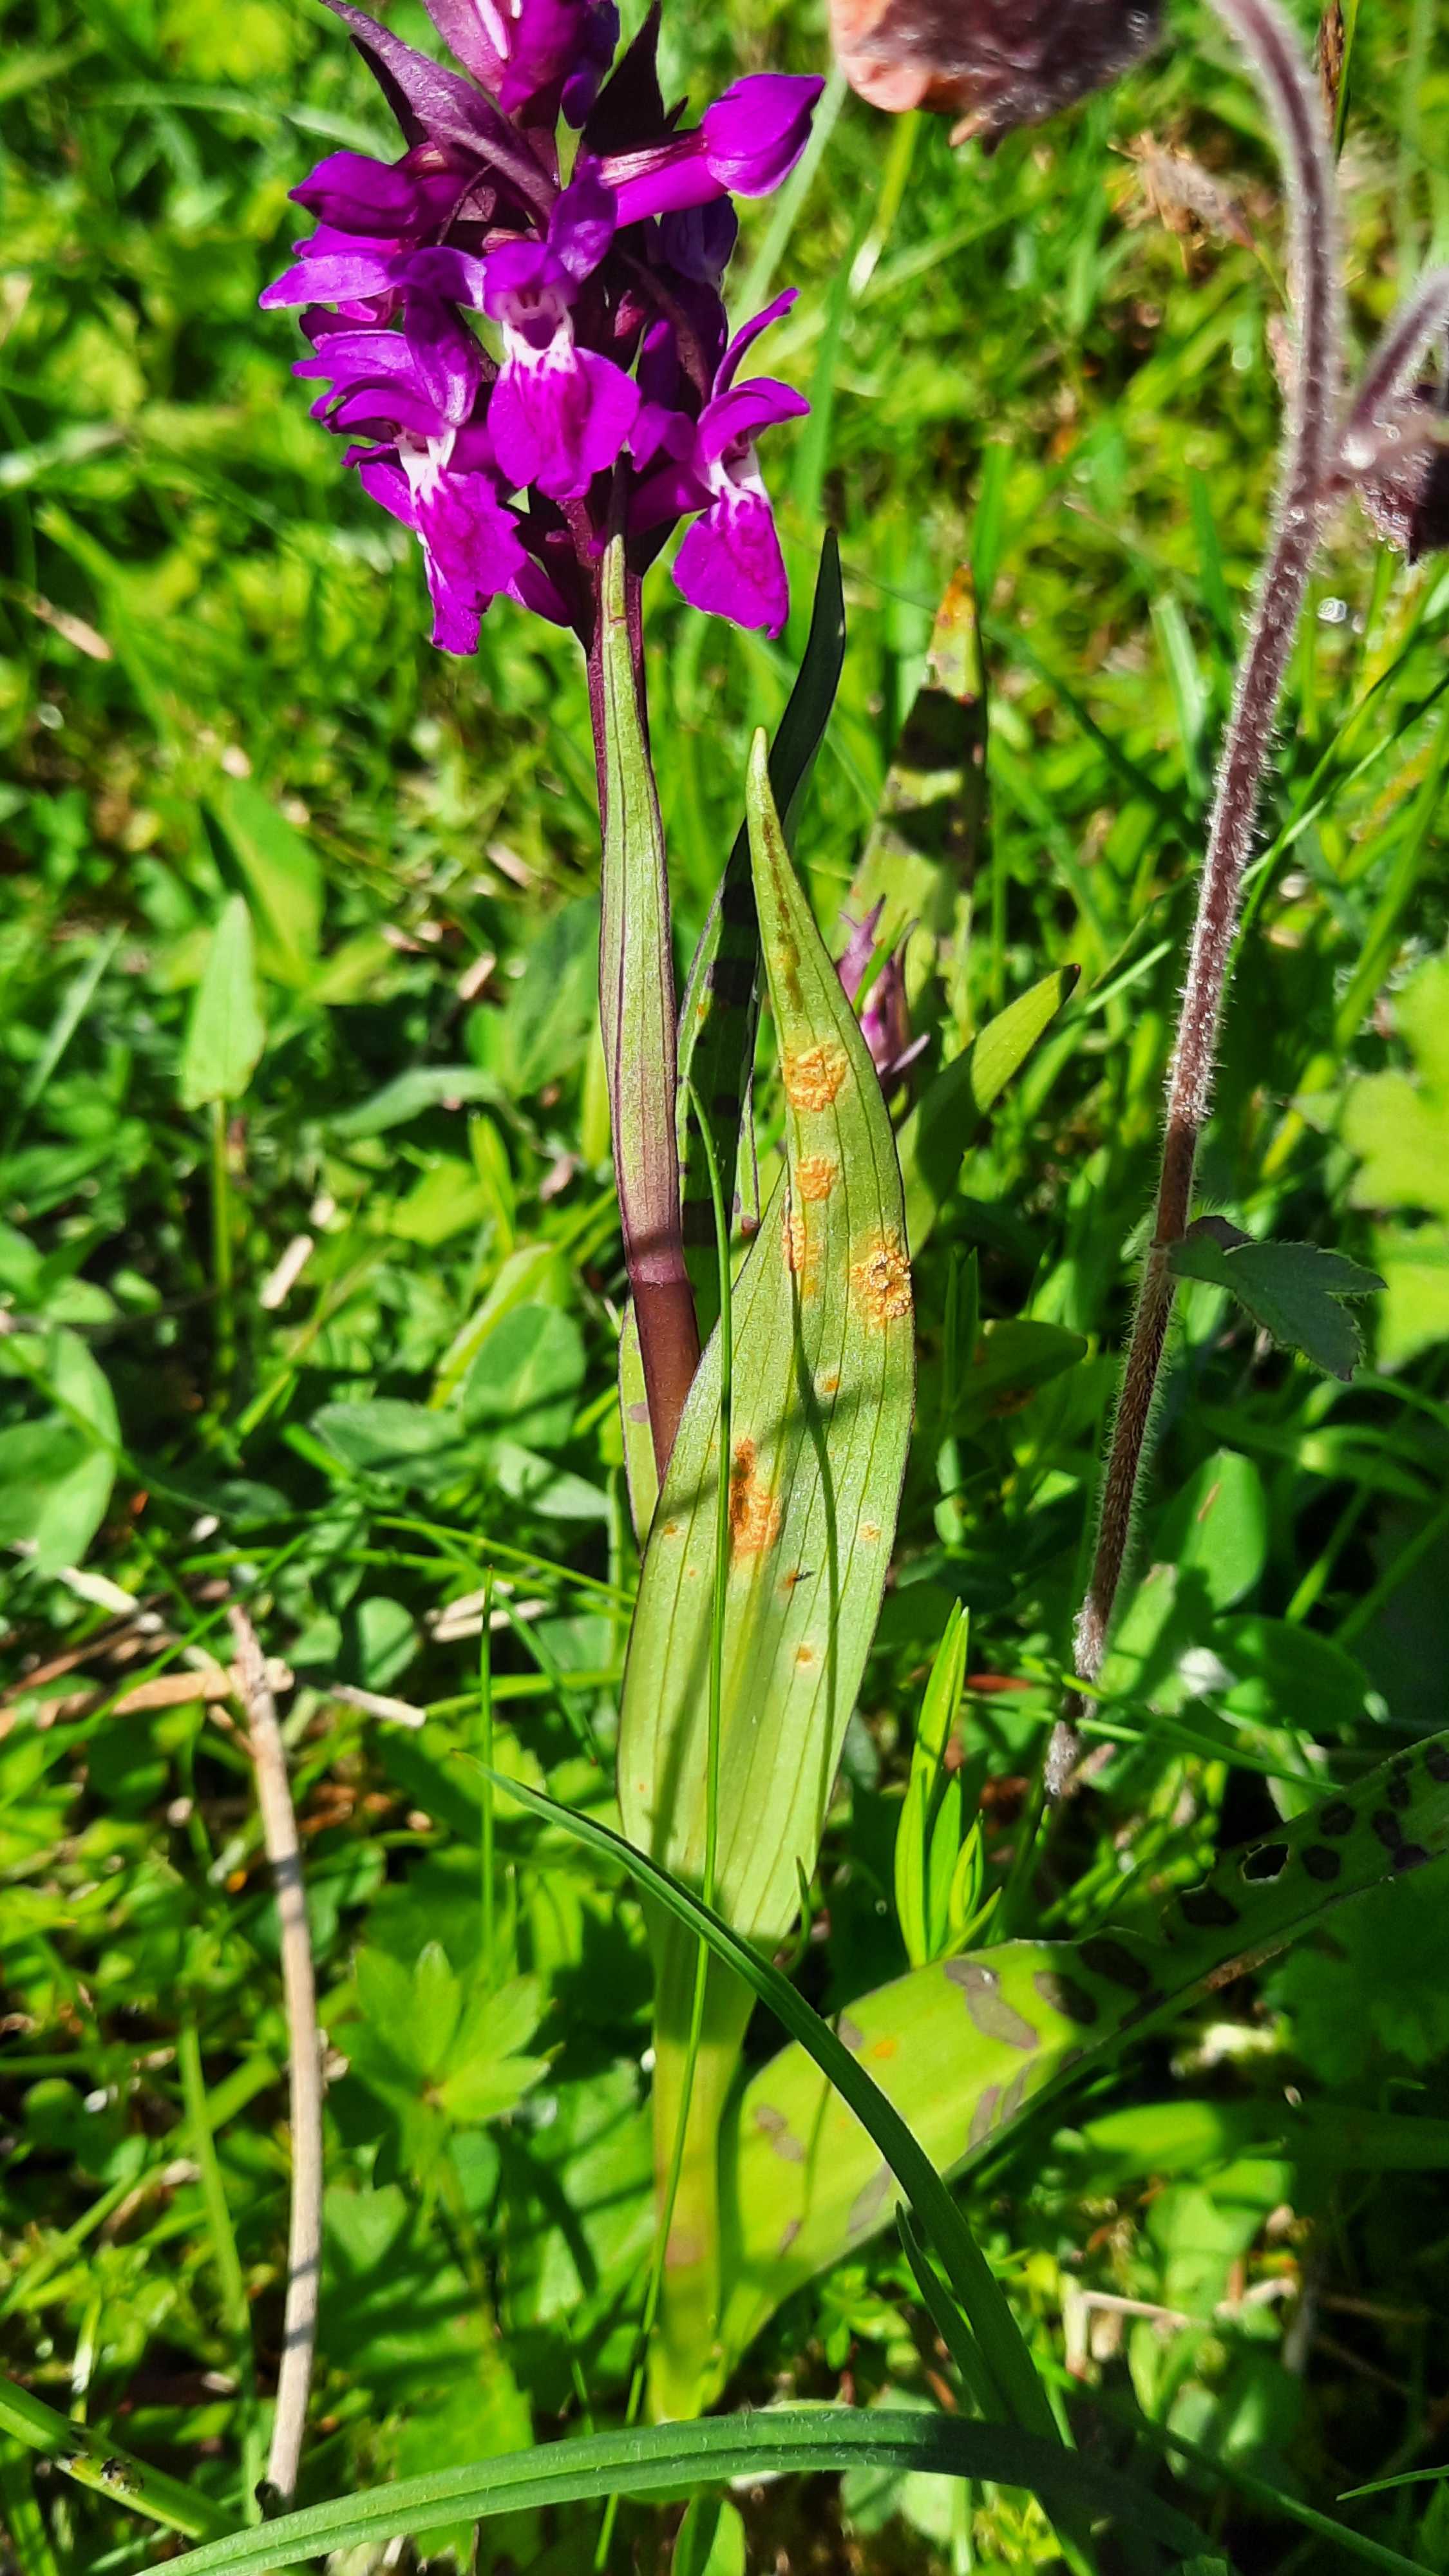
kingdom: Fungi
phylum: Basidiomycota
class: Pucciniomycetes
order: Pucciniales
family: Pucciniaceae
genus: Puccinia
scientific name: Puccinia sessilis
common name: Arum rust
